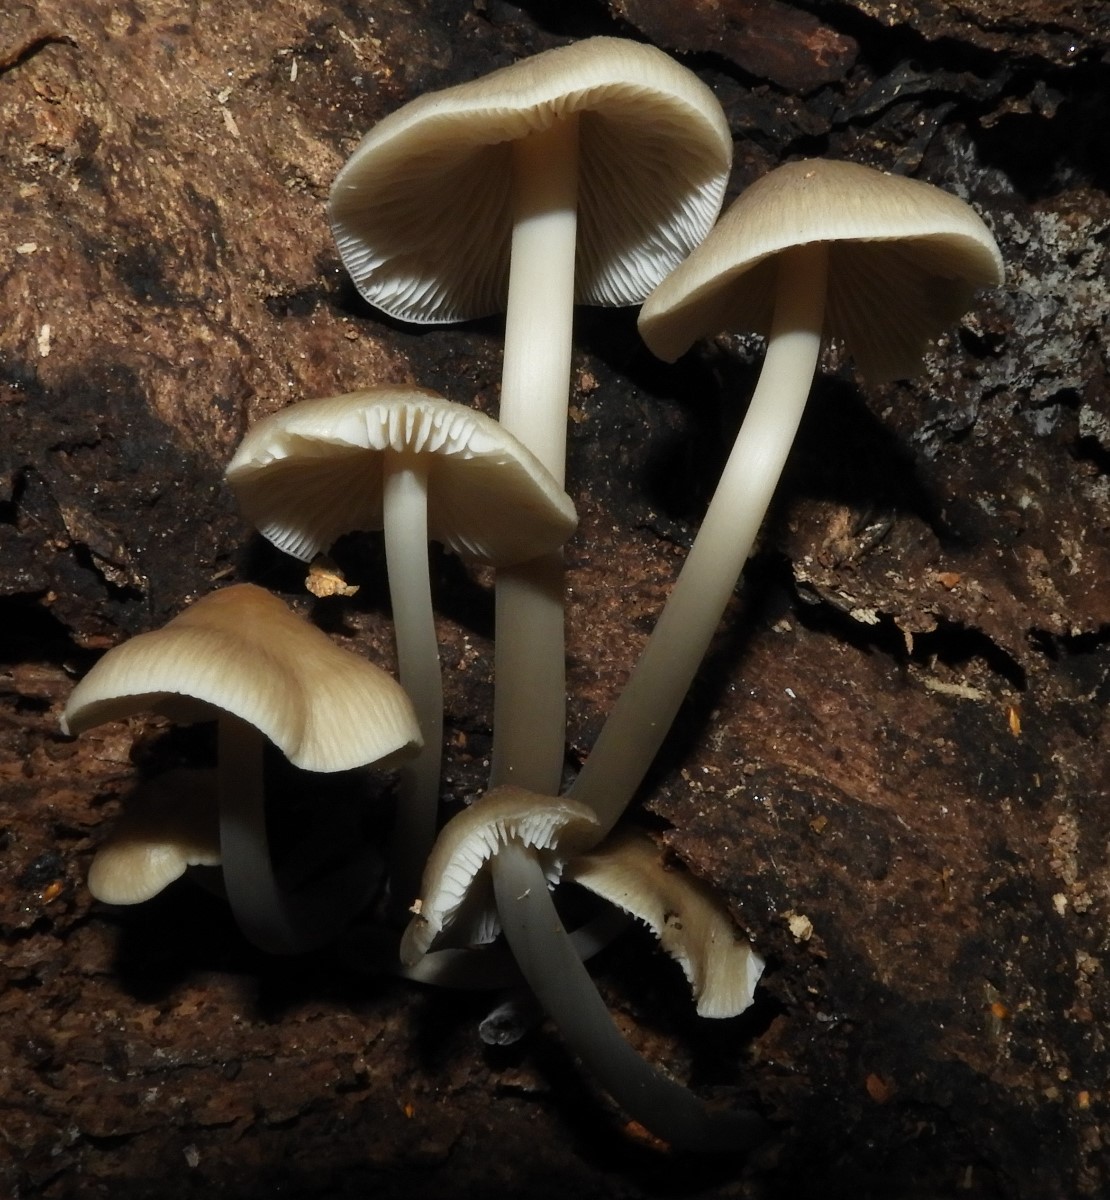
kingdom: Fungi
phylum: Basidiomycota
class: Agaricomycetes
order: Agaricales
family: Mycenaceae
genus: Mycena
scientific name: Mycena galericulata
